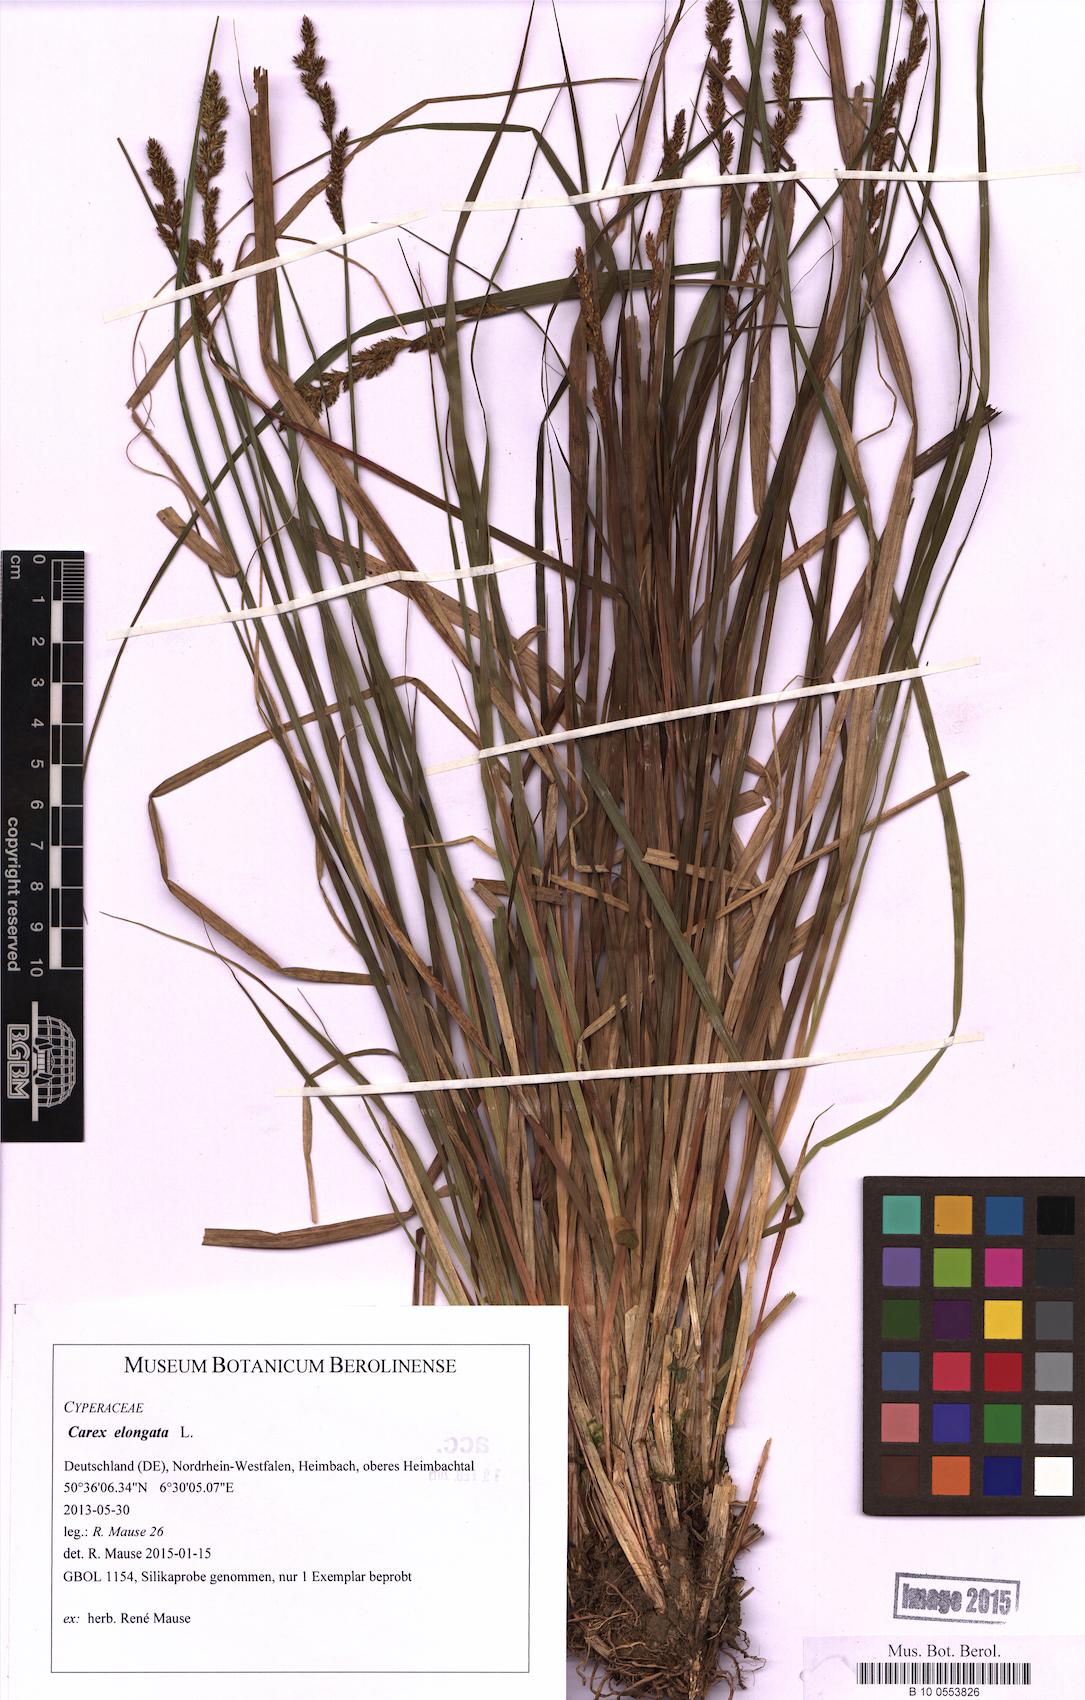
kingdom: Plantae
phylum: Tracheophyta
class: Liliopsida
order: Poales
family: Cyperaceae
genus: Carex
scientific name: Carex elongata
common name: Elongated sedge
